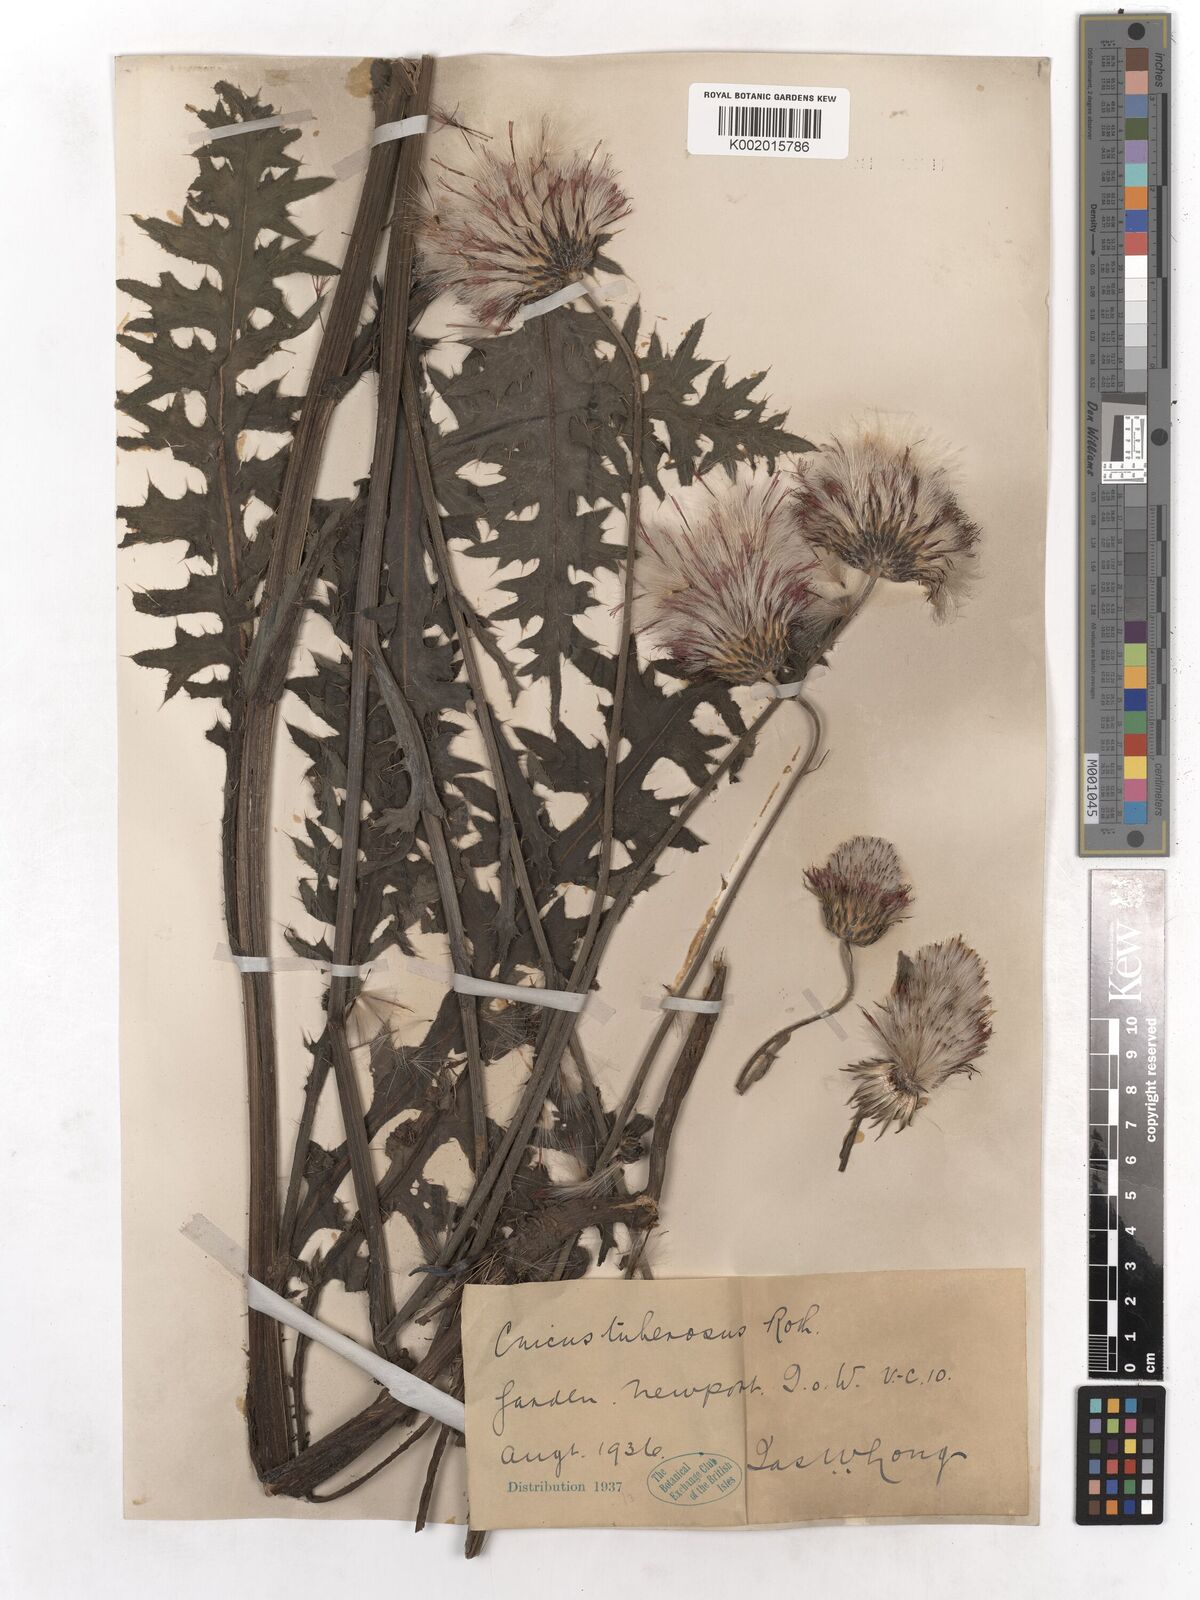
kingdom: Plantae
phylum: Tracheophyta
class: Magnoliopsida
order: Asterales
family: Asteraceae
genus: Cirsium
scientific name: Cirsium tuberosum
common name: Tuberous thistle
